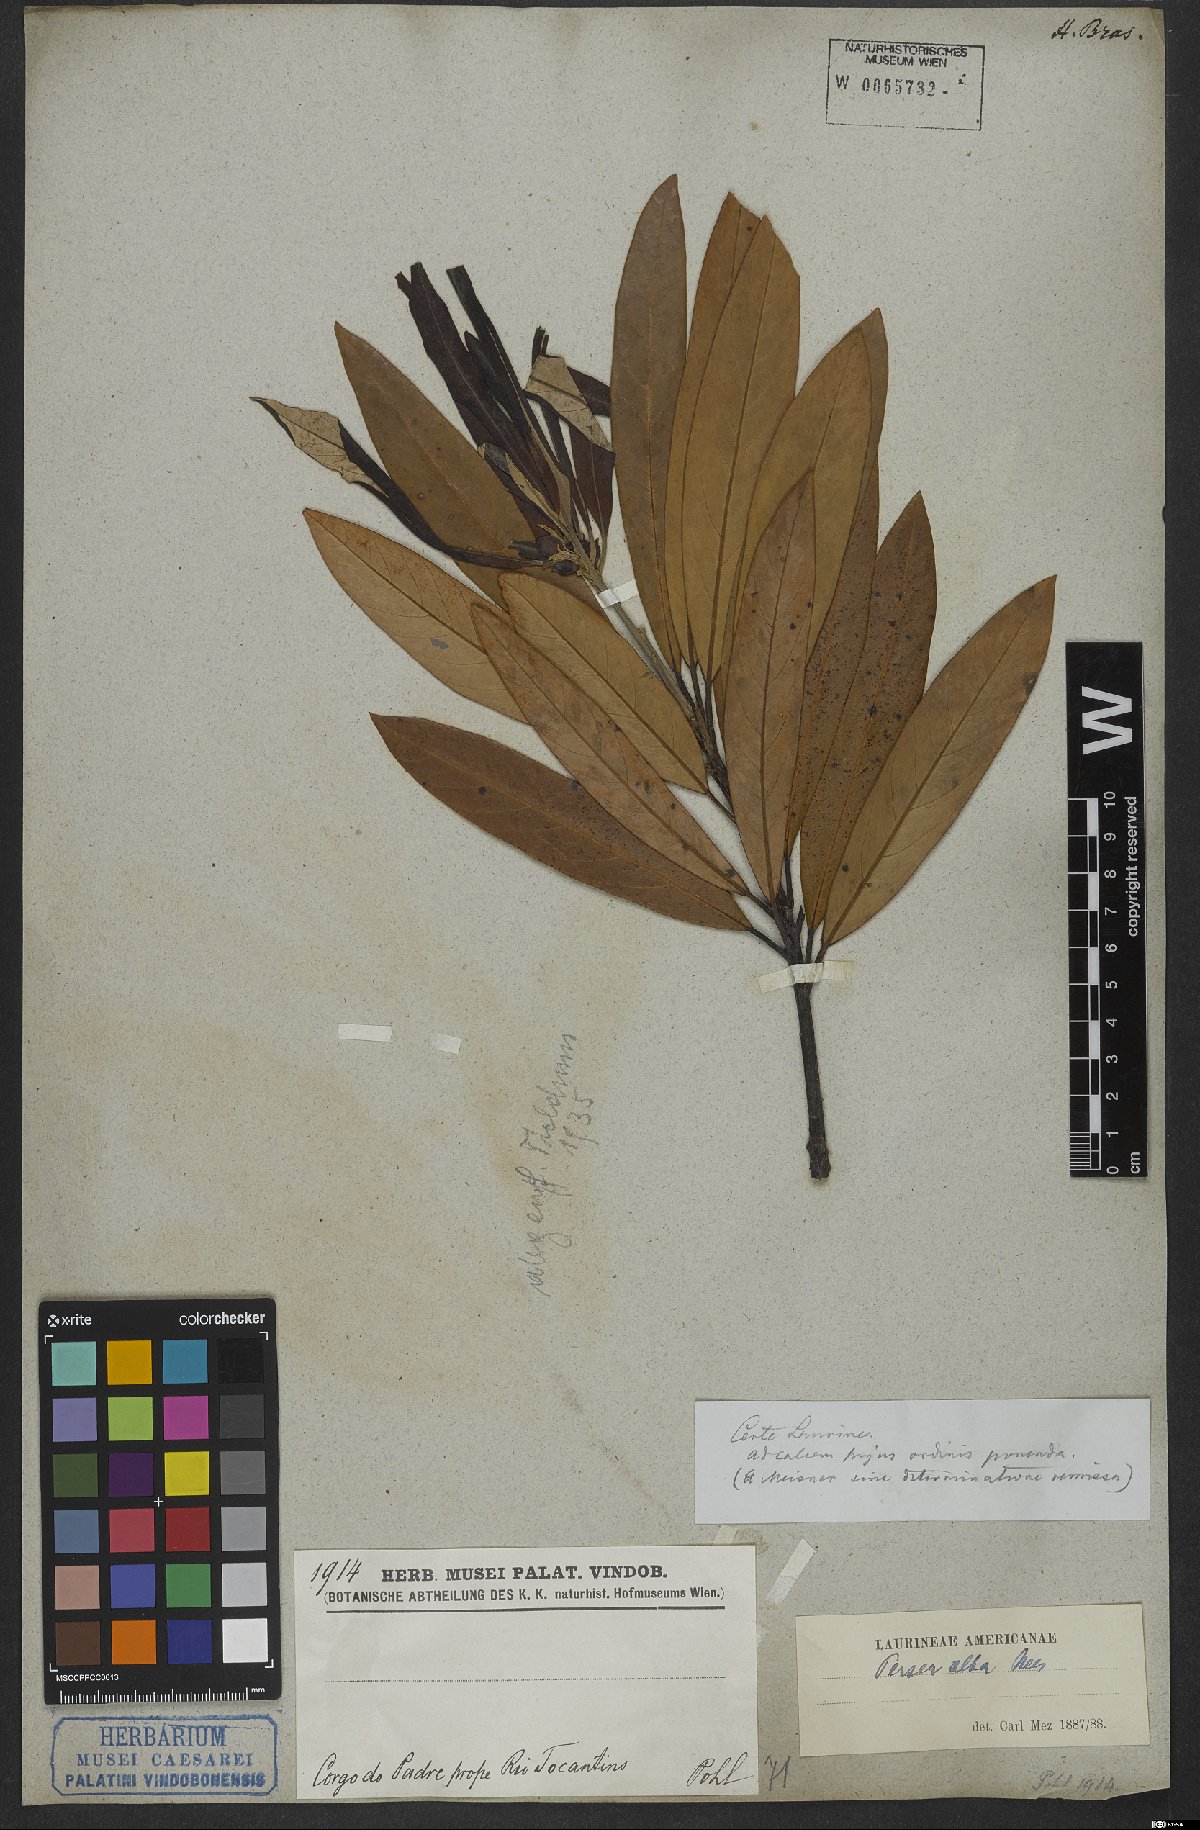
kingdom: Plantae
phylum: Tracheophyta
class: Magnoliopsida
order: Laurales
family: Lauraceae
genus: Persea
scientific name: Persea alba
